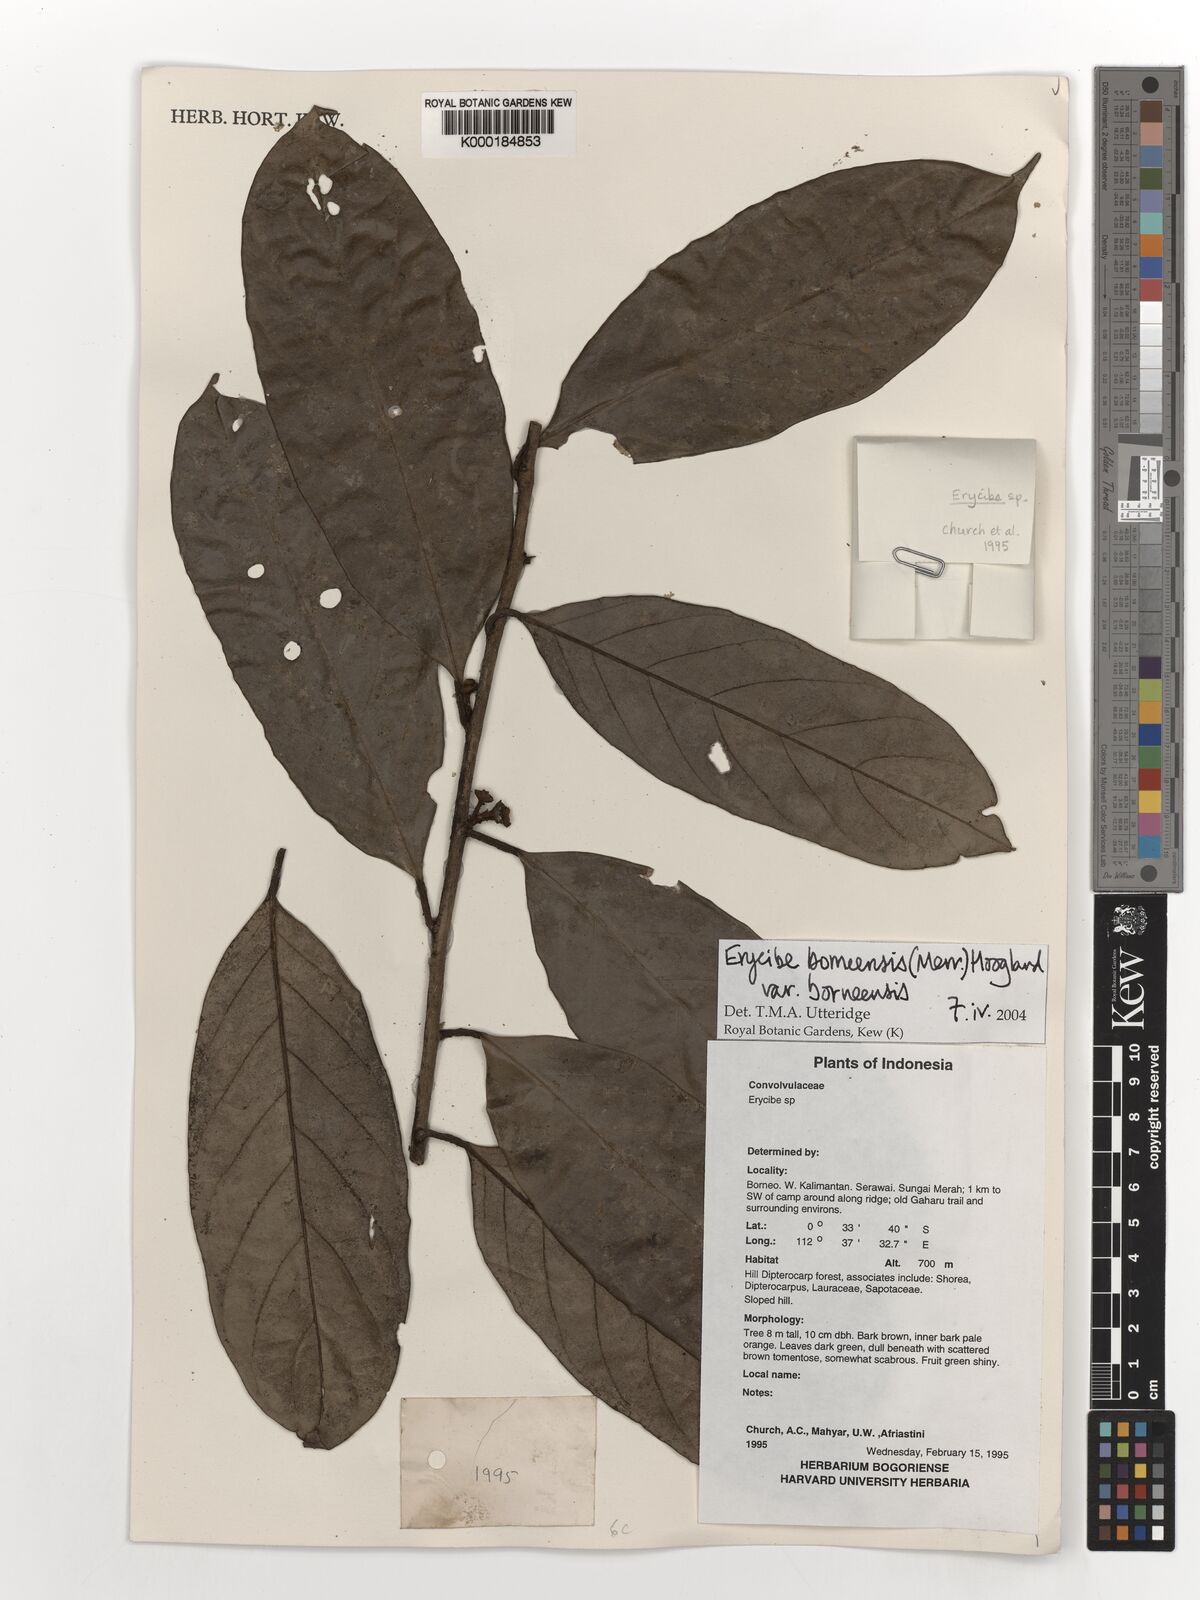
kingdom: Plantae
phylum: Tracheophyta
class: Magnoliopsida
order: Solanales
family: Convolvulaceae
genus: Erycibe
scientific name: Erycibe borneensis
